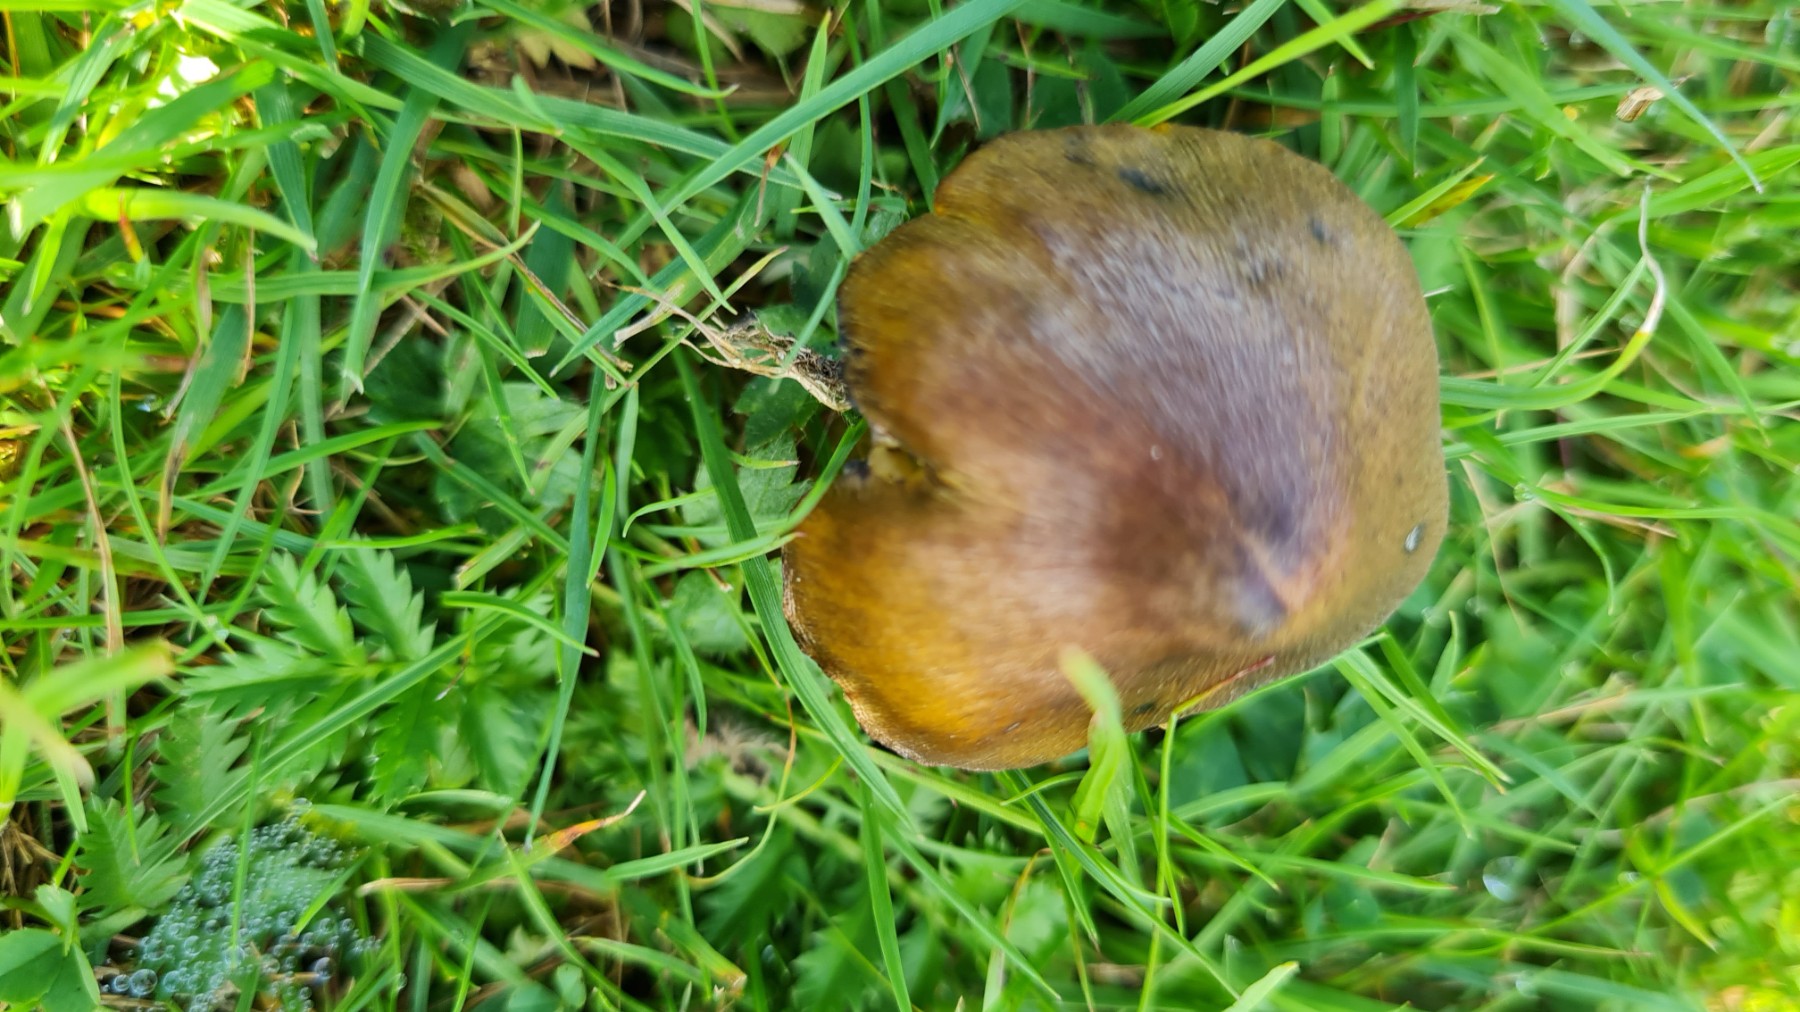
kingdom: Fungi
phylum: Basidiomycota
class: Agaricomycetes
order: Agaricales
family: Hygrophoraceae
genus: Hygrocybe
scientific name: Hygrocybe conica
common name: kegle-vokshat
